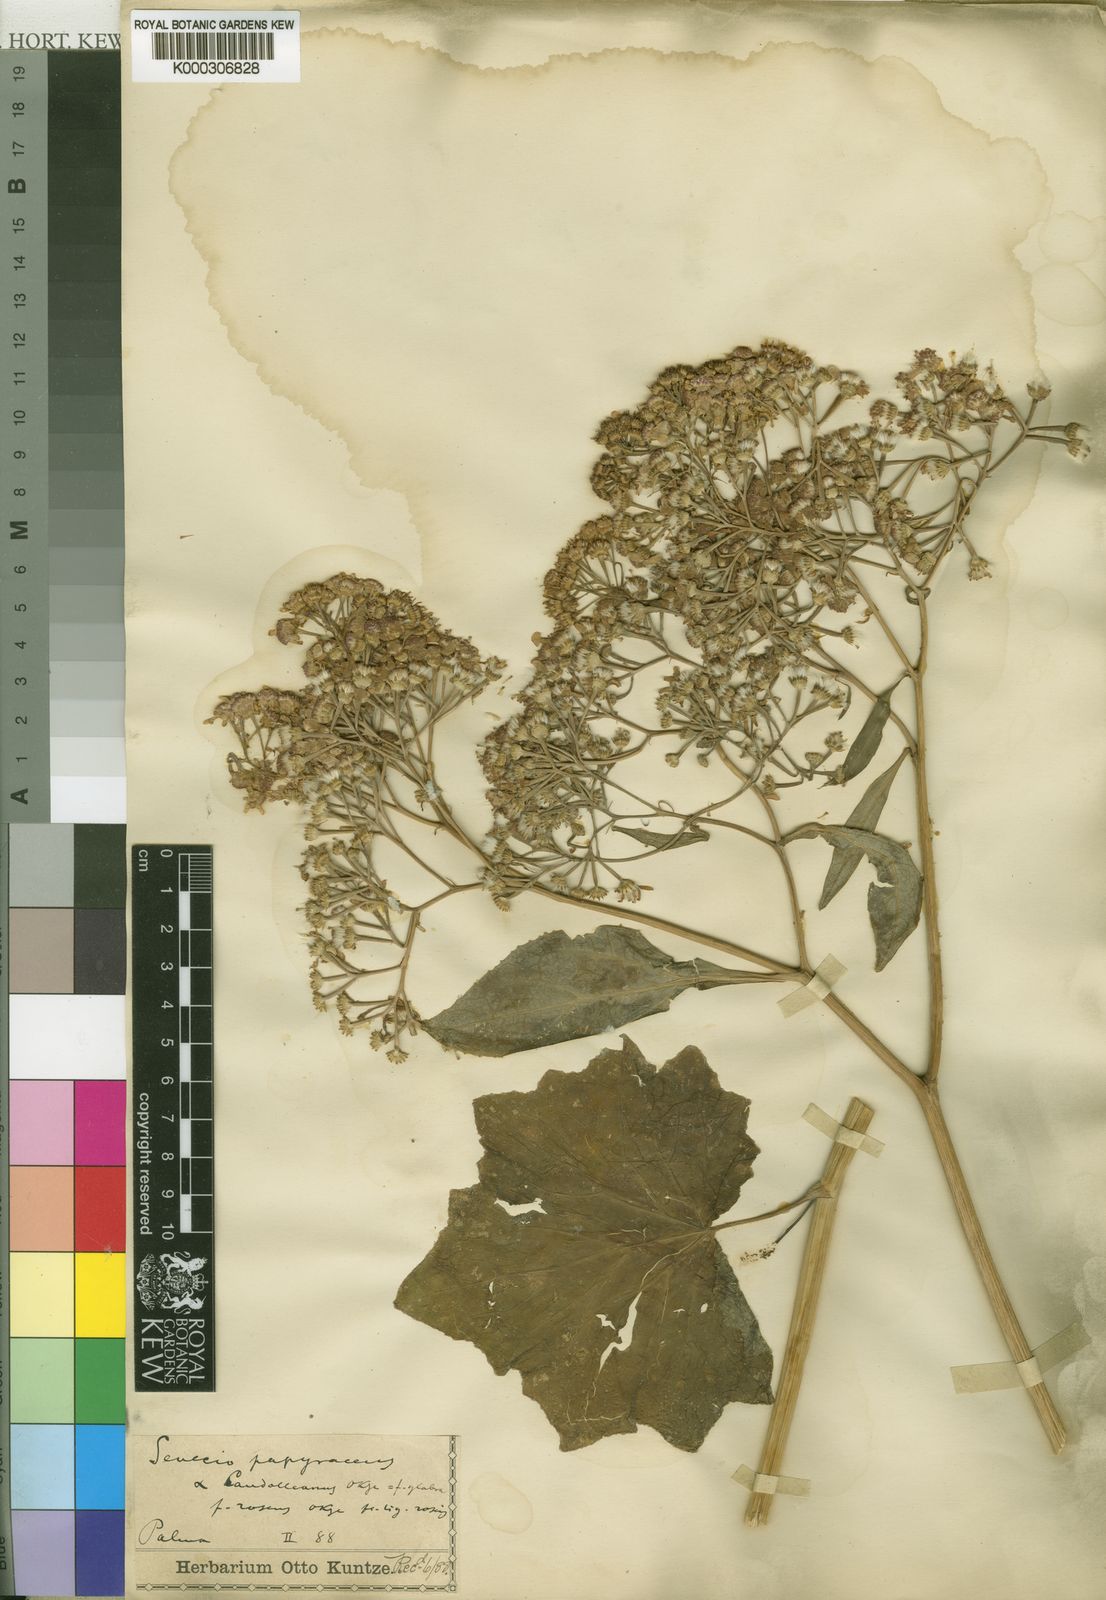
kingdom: Plantae
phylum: Tracheophyta
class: Magnoliopsida
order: Asterales
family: Asteraceae
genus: Pericallis
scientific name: Pericallis
